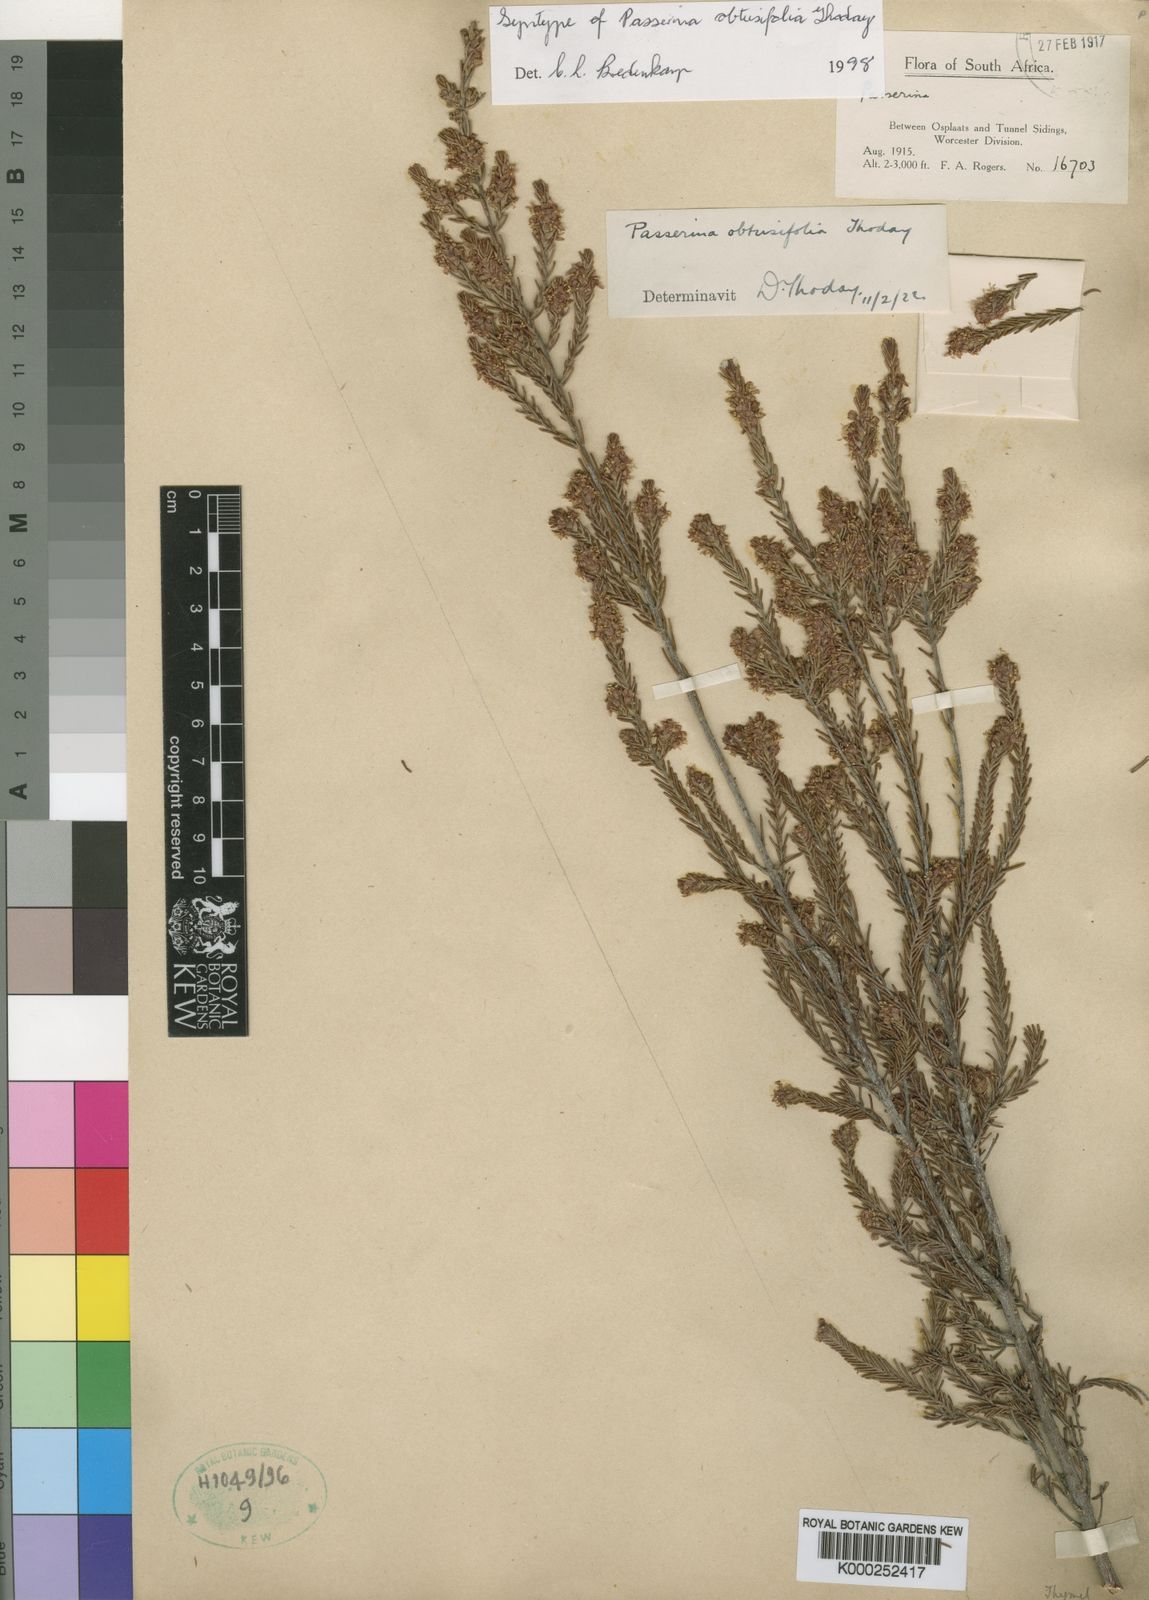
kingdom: Plantae
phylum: Tracheophyta
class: Magnoliopsida
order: Malvales
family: Thymelaeaceae
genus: Passerina
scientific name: Passerina obtusifolia
